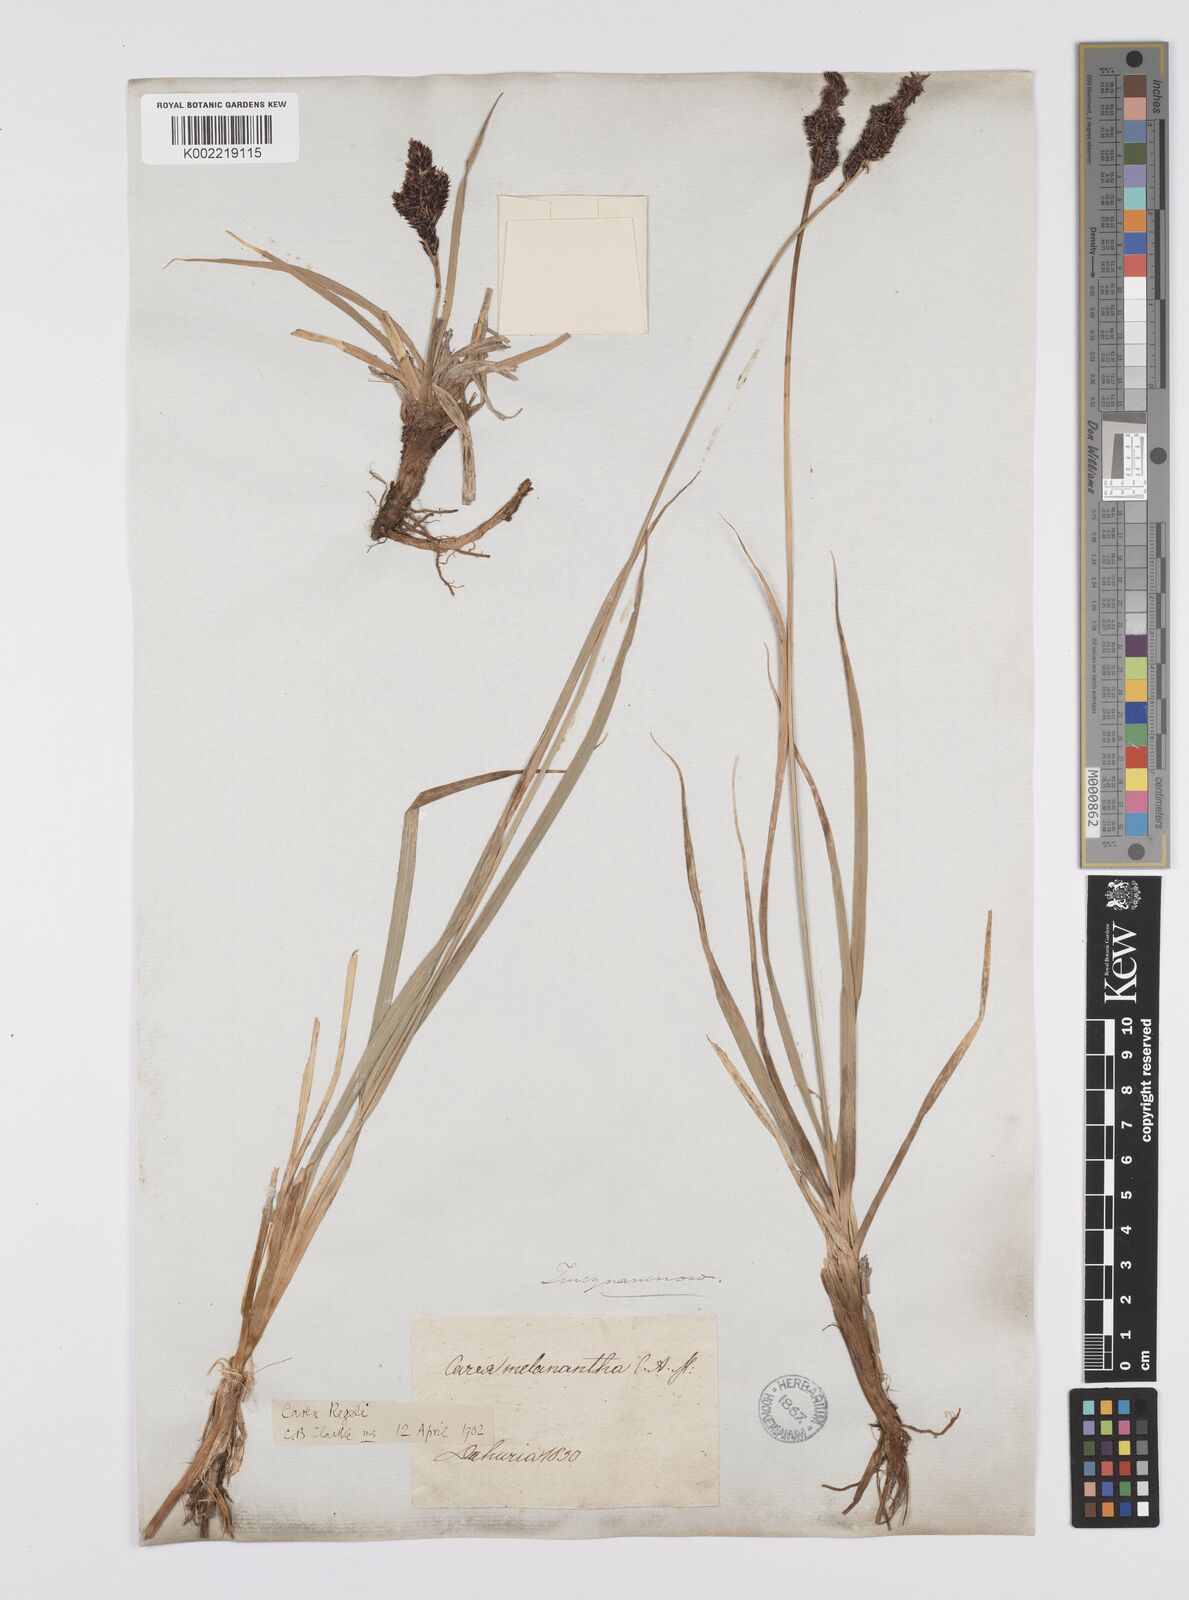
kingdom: Plantae
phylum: Tracheophyta
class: Liliopsida
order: Poales
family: Cyperaceae
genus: Carex
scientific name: Carex melanantha
